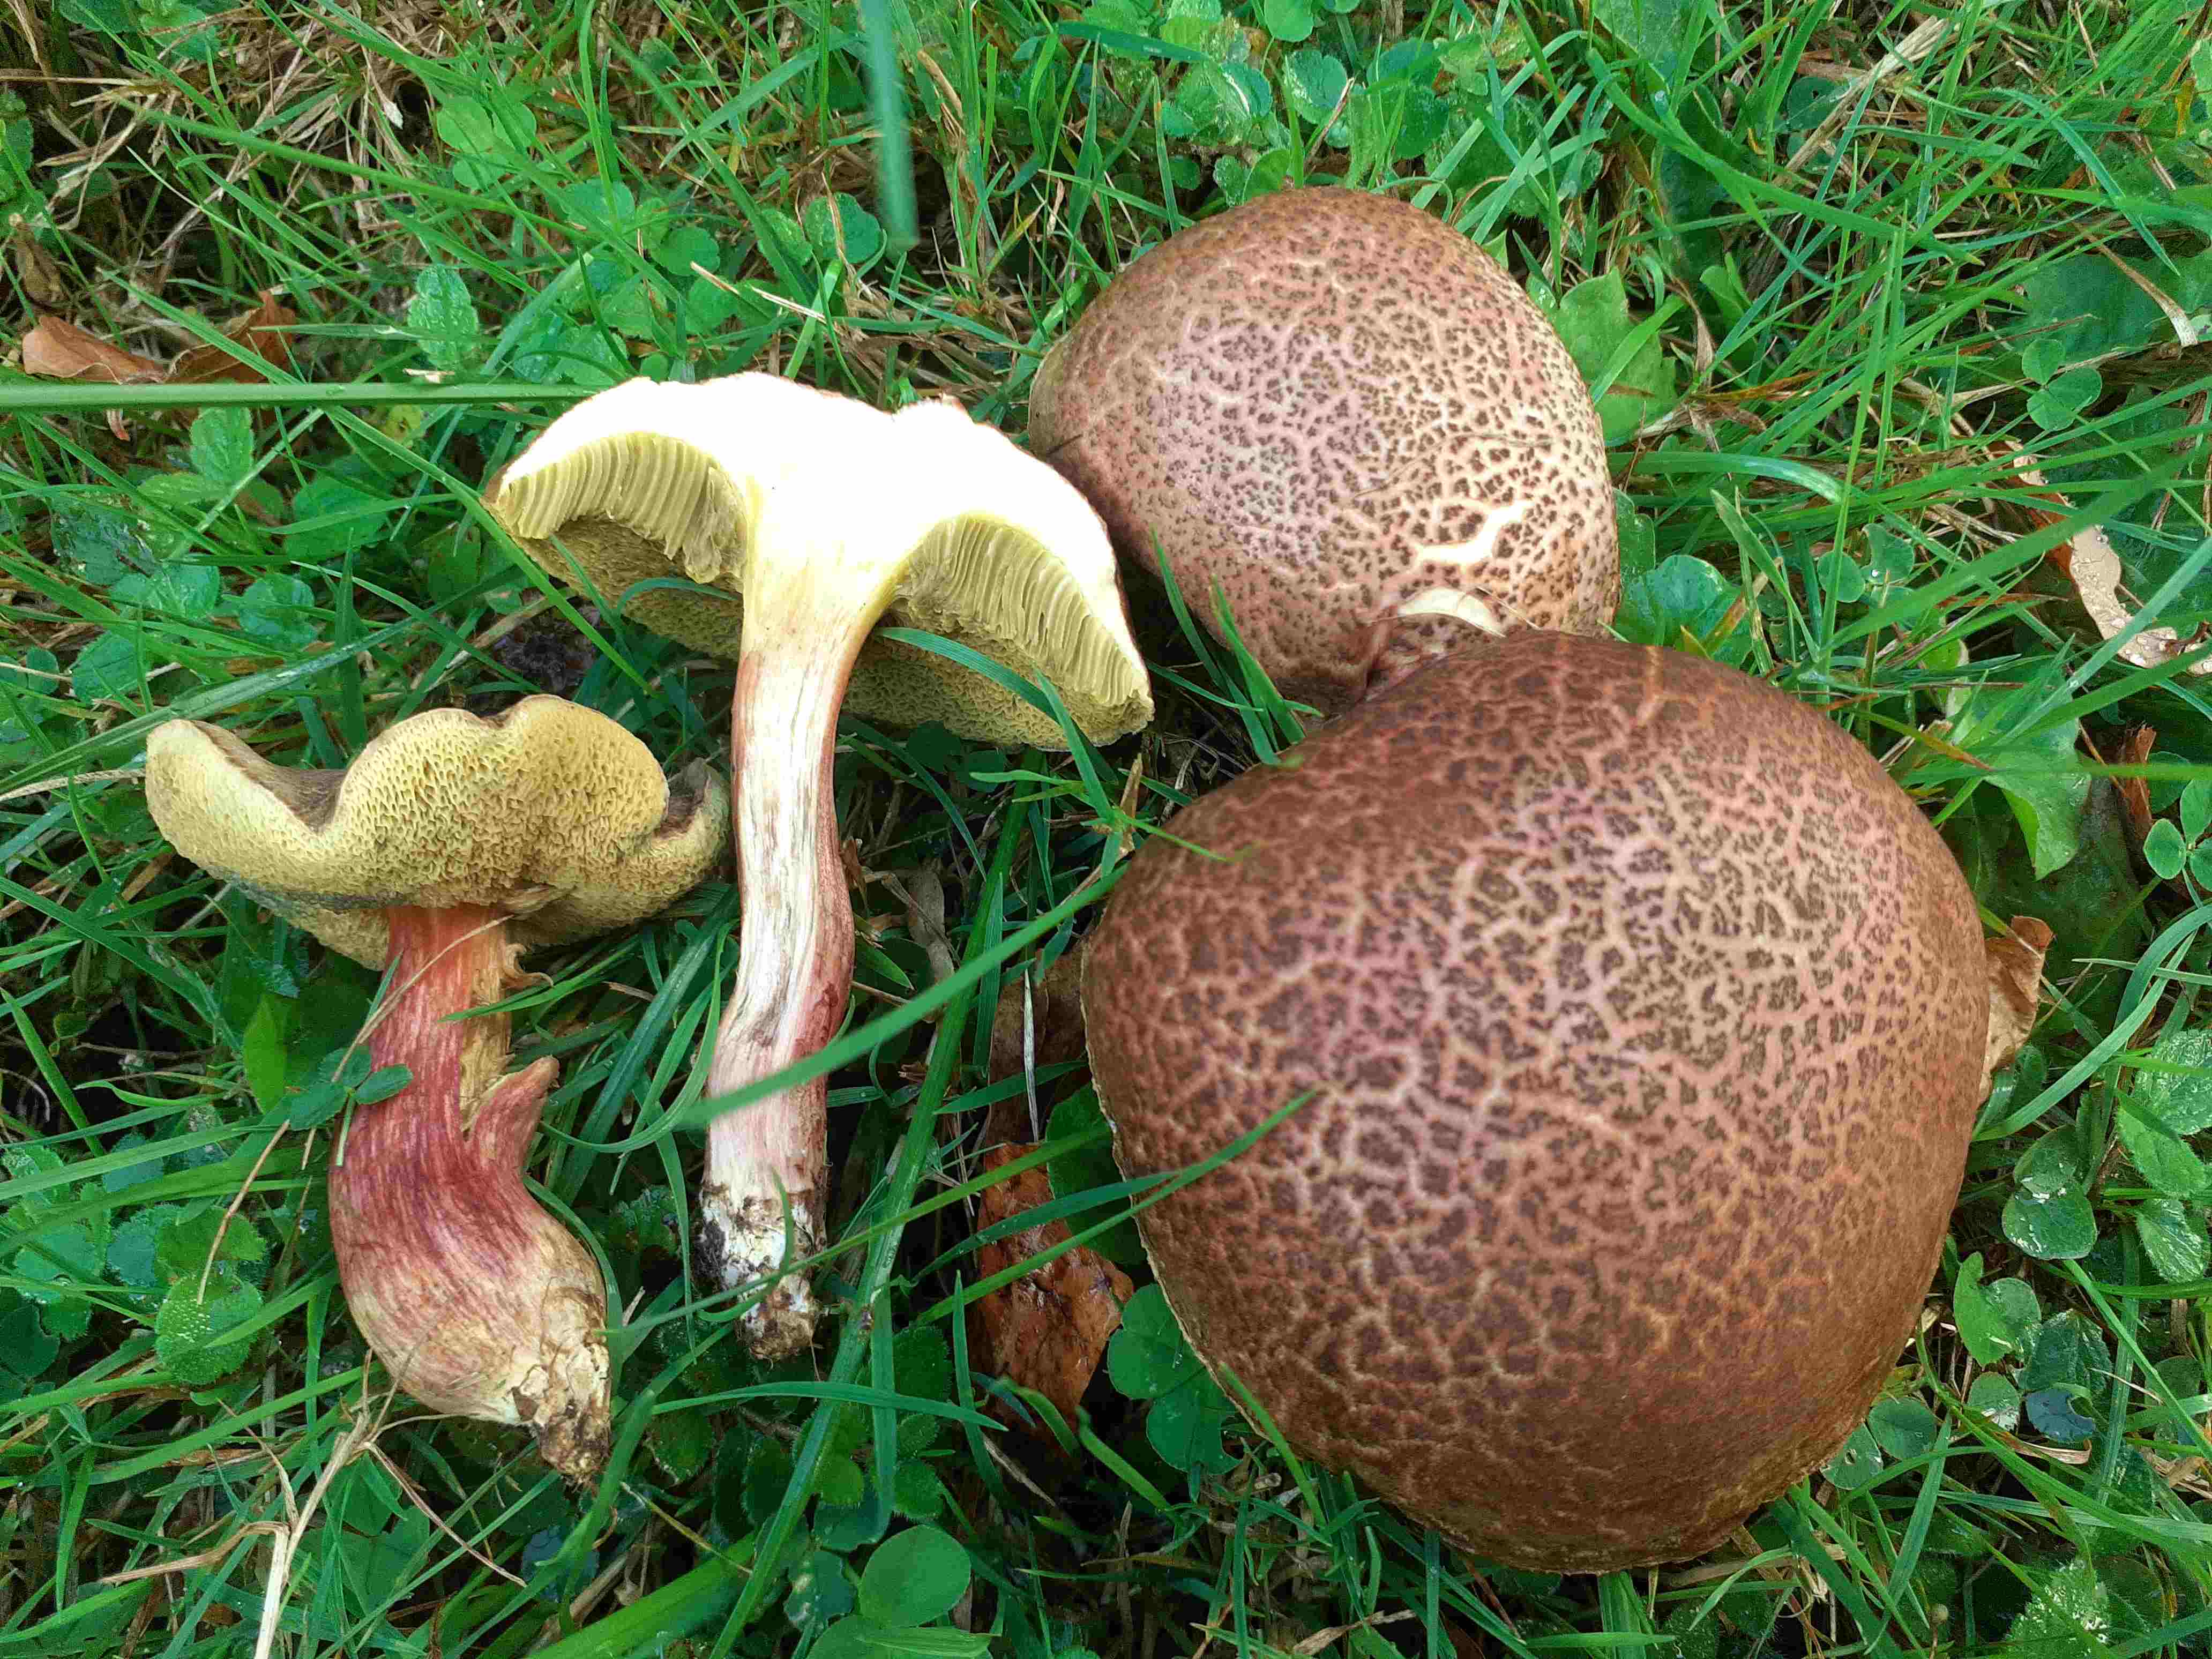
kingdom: Fungi
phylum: Basidiomycota
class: Agaricomycetes
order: Boletales
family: Boletaceae
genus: Xerocomellus
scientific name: Xerocomellus chrysenteron
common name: rødsprukken rørhat
